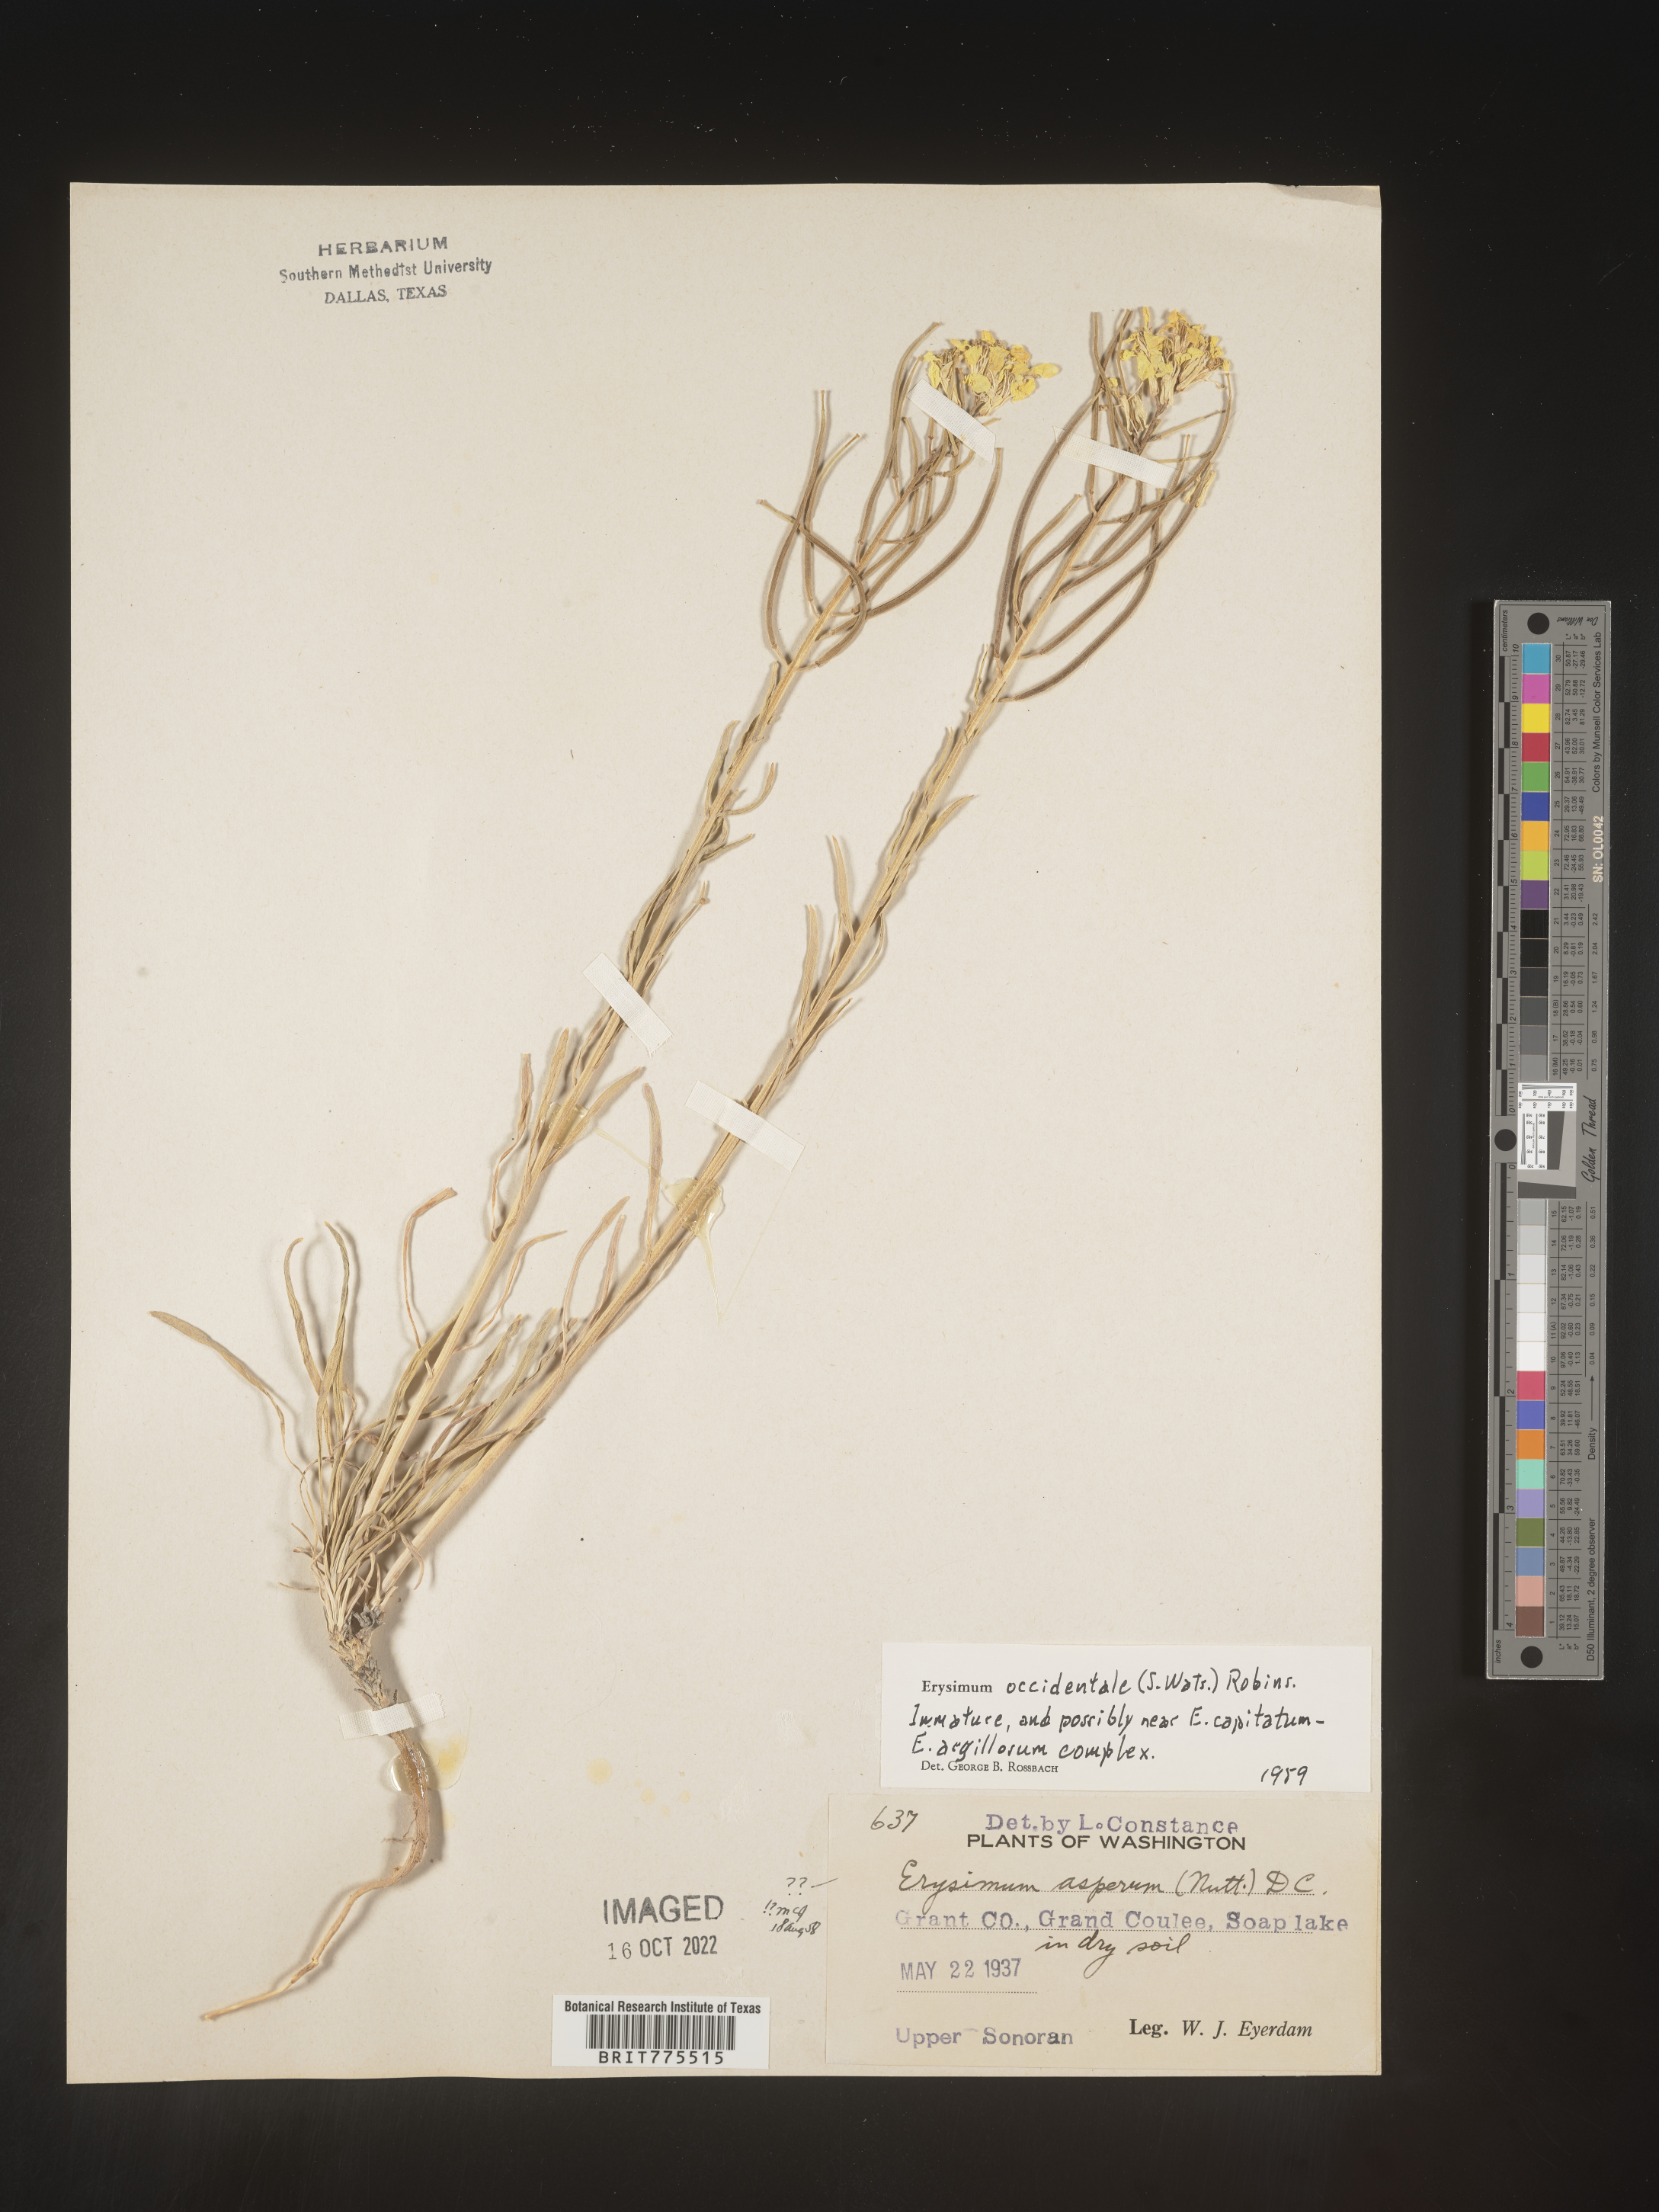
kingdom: Plantae
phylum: Tracheophyta
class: Magnoliopsida
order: Brassicales
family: Brassicaceae
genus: Erysimum
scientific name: Erysimum
